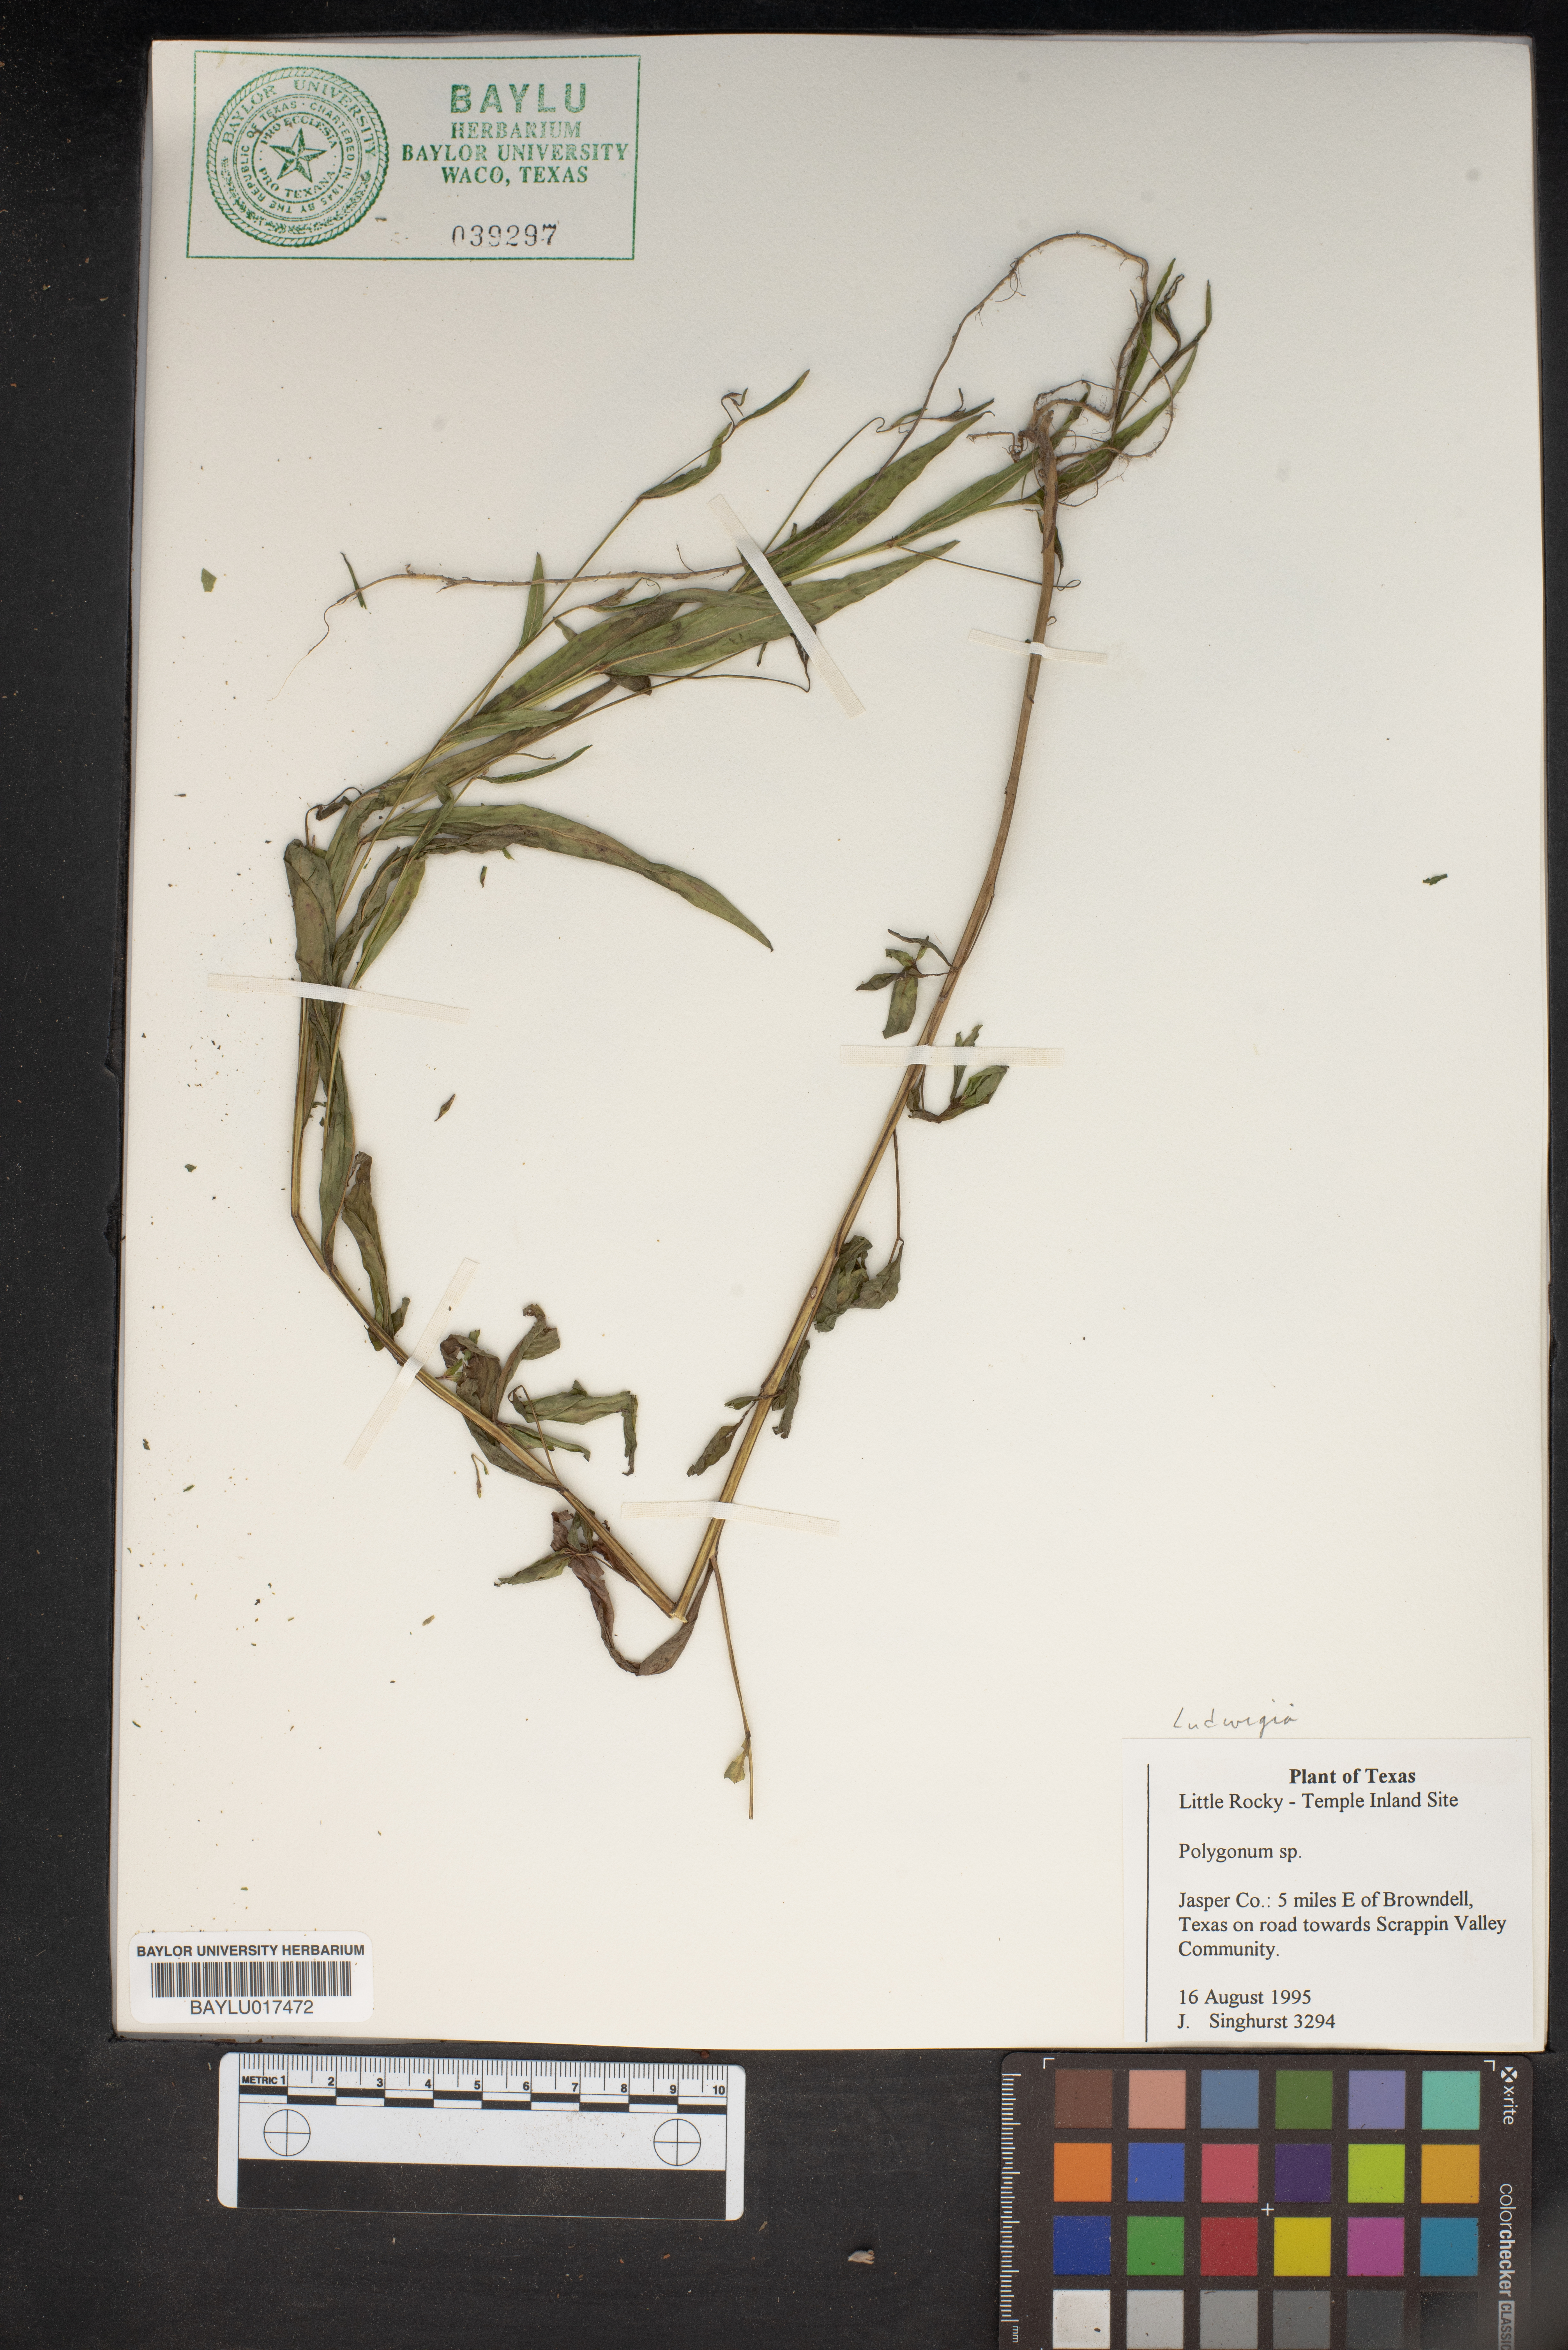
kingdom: Plantae
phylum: Tracheophyta
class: Magnoliopsida
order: Caryophyllales
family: Polygonaceae
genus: Polygonum
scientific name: Polygonum
